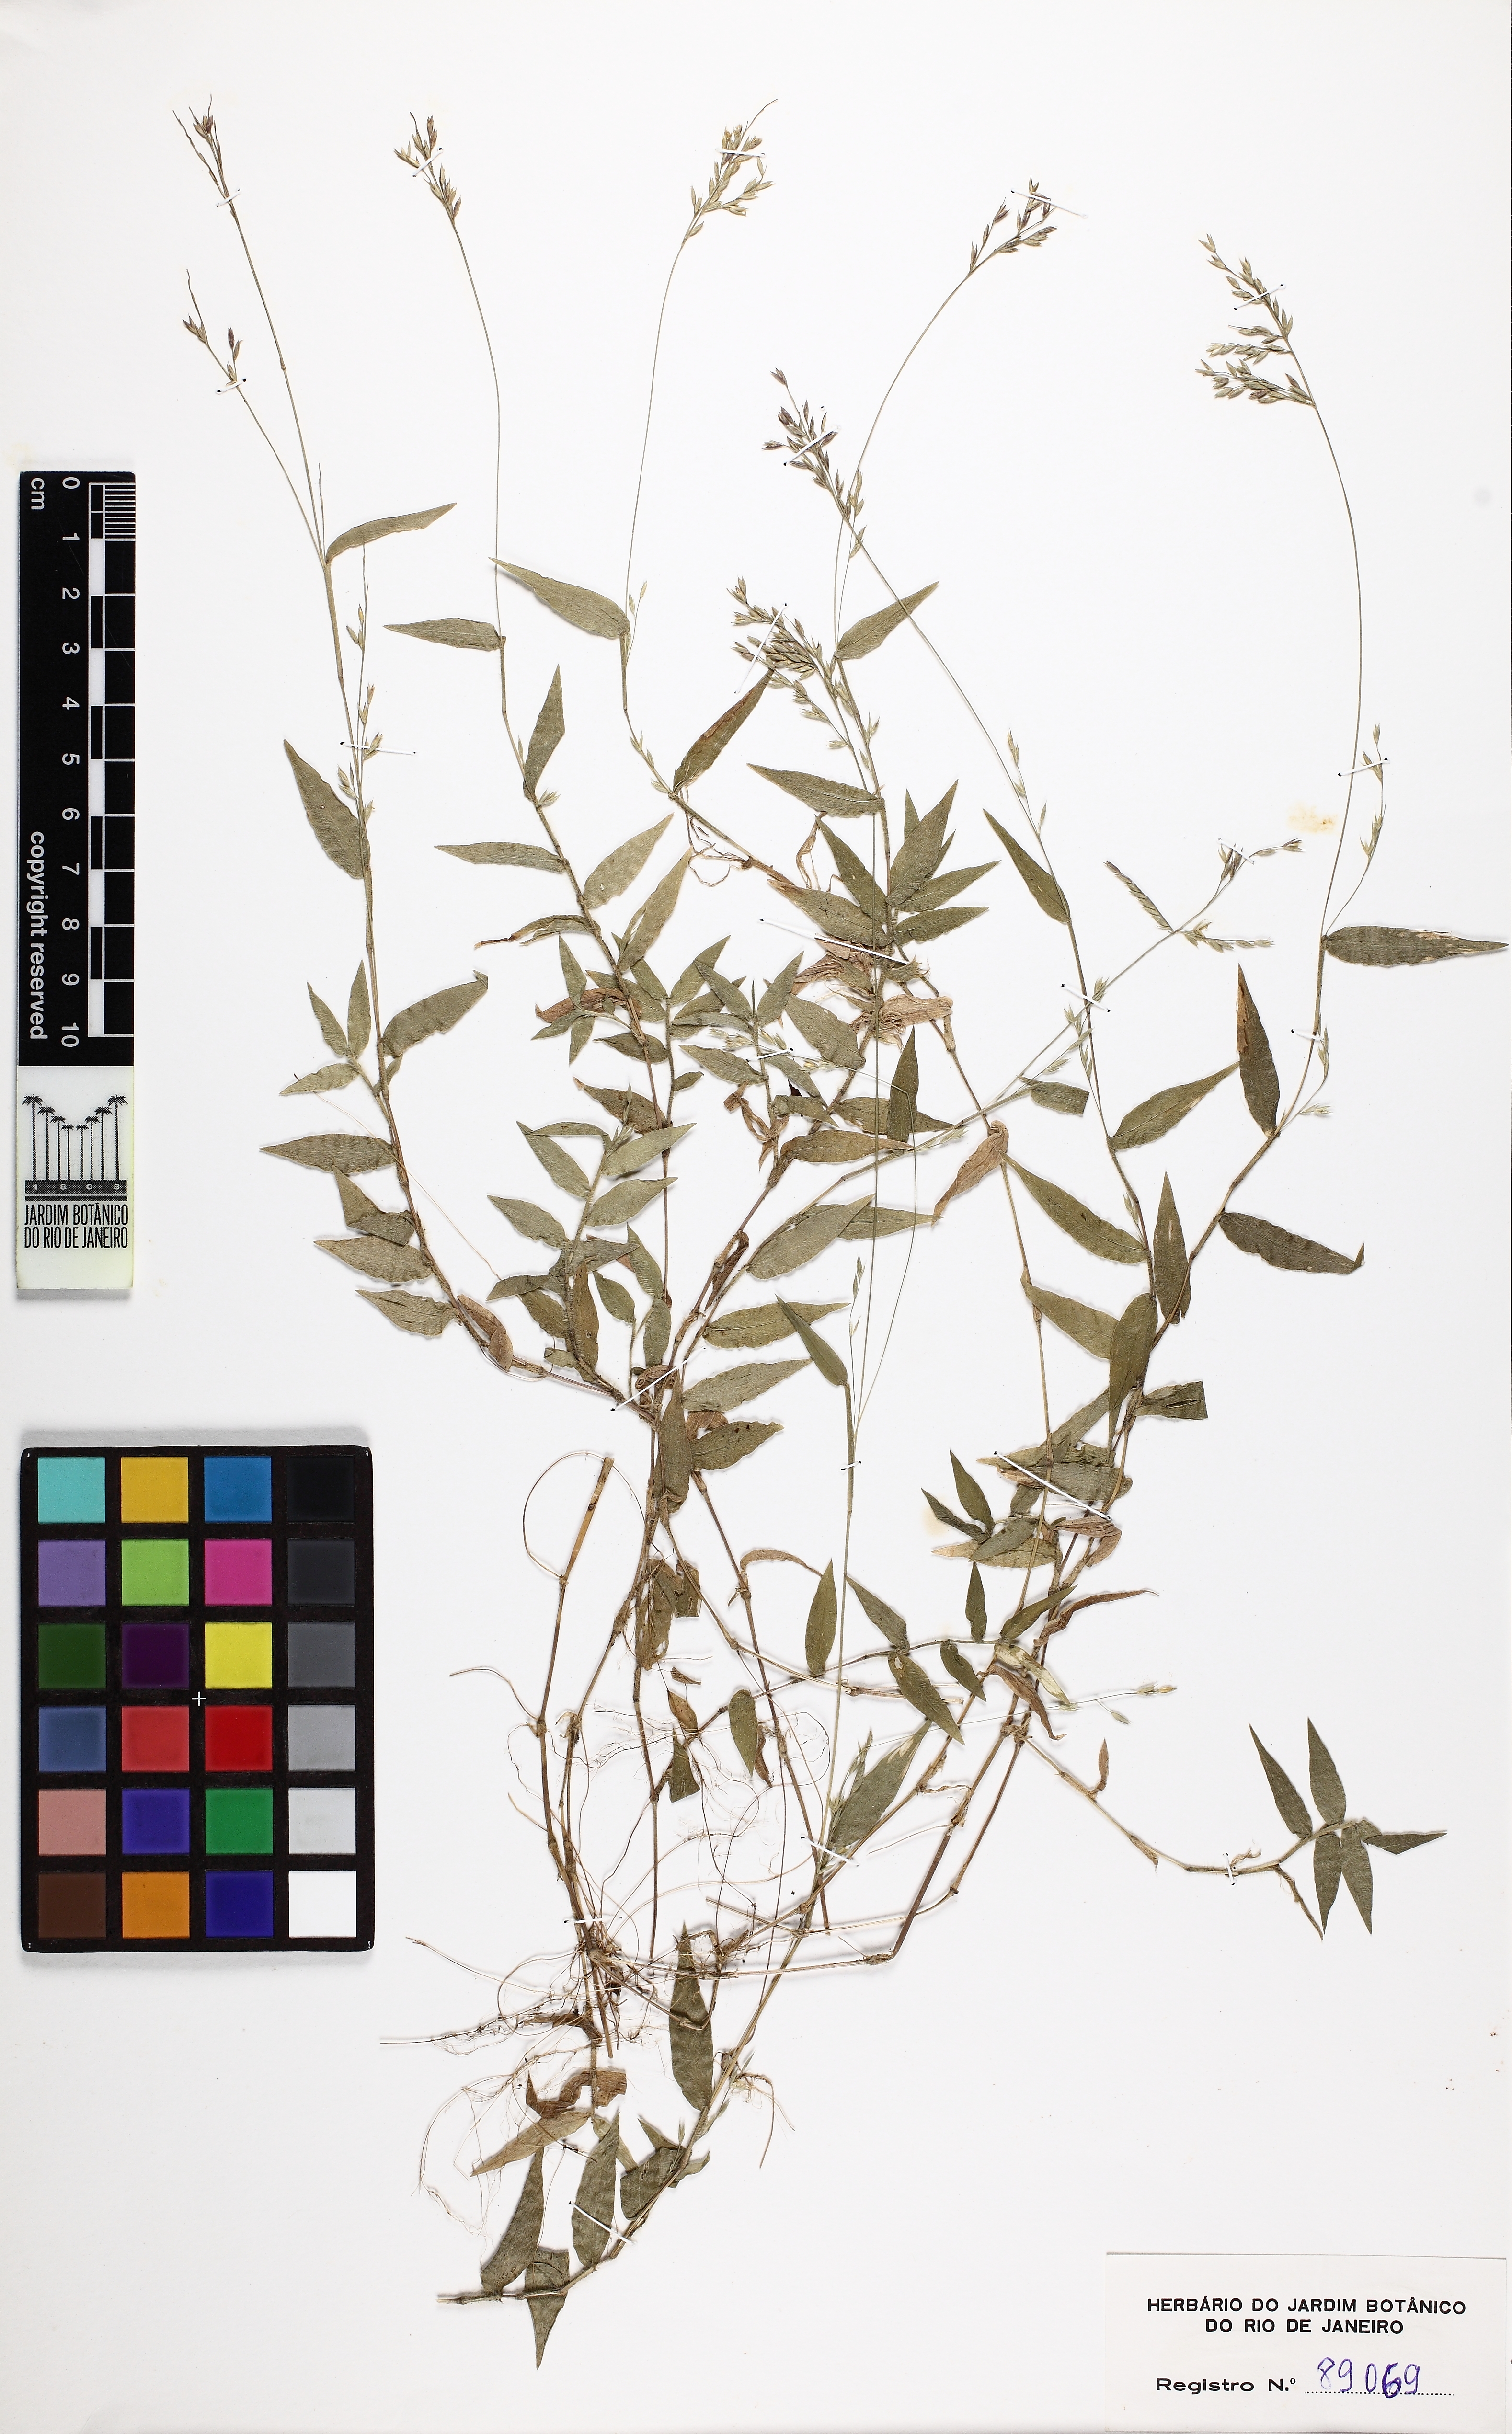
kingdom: Plantae
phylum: Tracheophyta
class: Liliopsida
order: Poales
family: Poaceae
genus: Ichnanthus
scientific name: Ichnanthus tenuis
